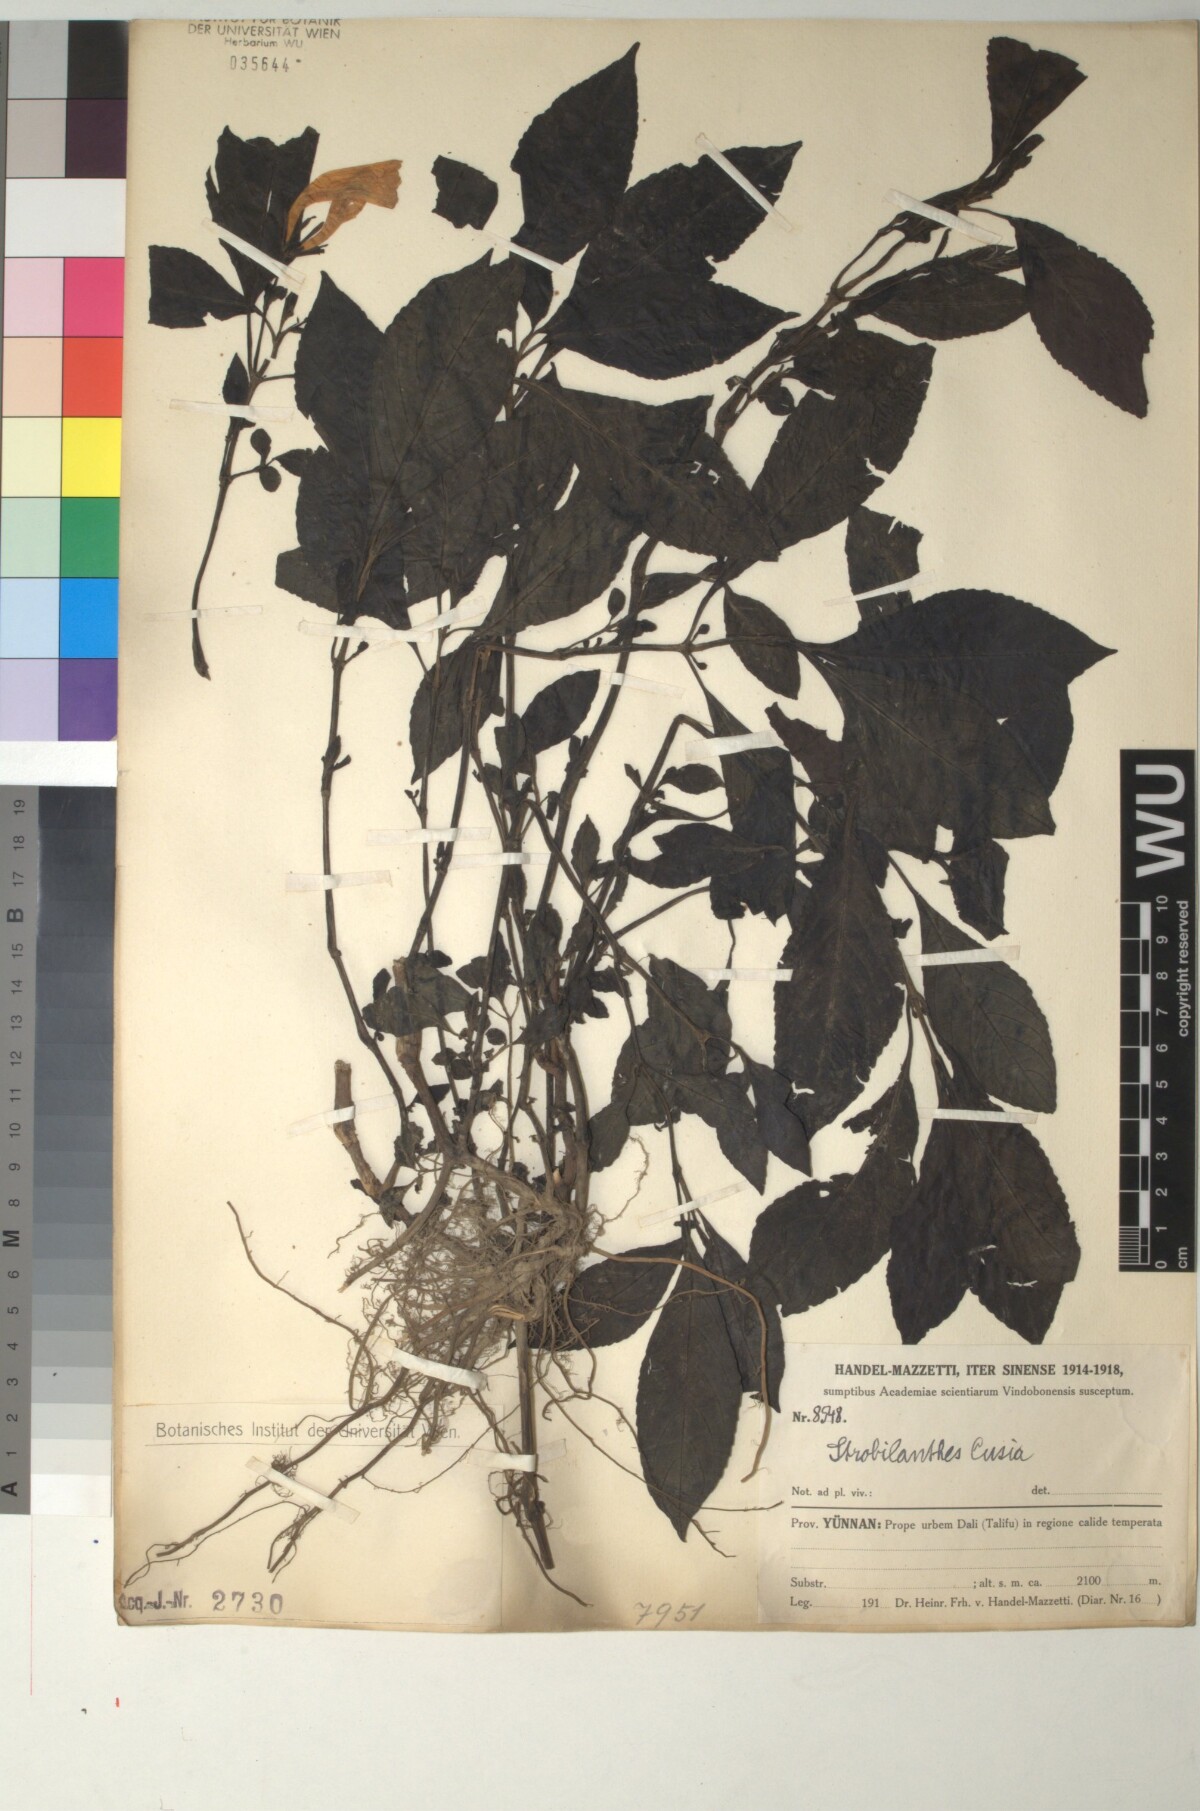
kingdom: Plantae
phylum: Tracheophyta
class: Magnoliopsida
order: Lamiales
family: Acanthaceae
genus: Strobilanthes
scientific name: Strobilanthes cusia
